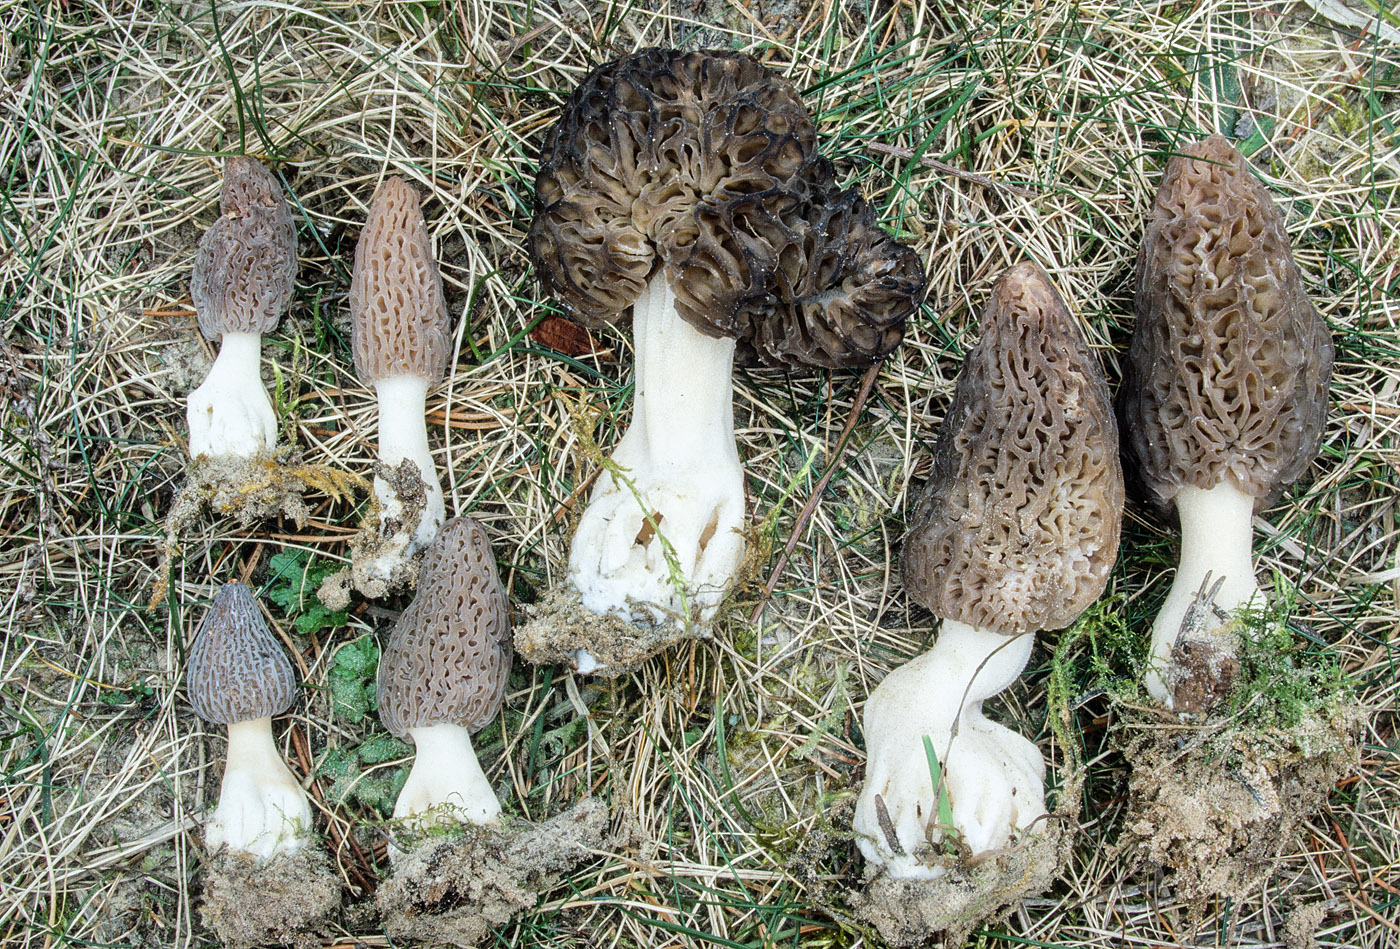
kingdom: Fungi
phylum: Ascomycota
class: Pezizomycetes
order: Pezizales
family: Morchellaceae
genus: Morchella
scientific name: Morchella esculenta
